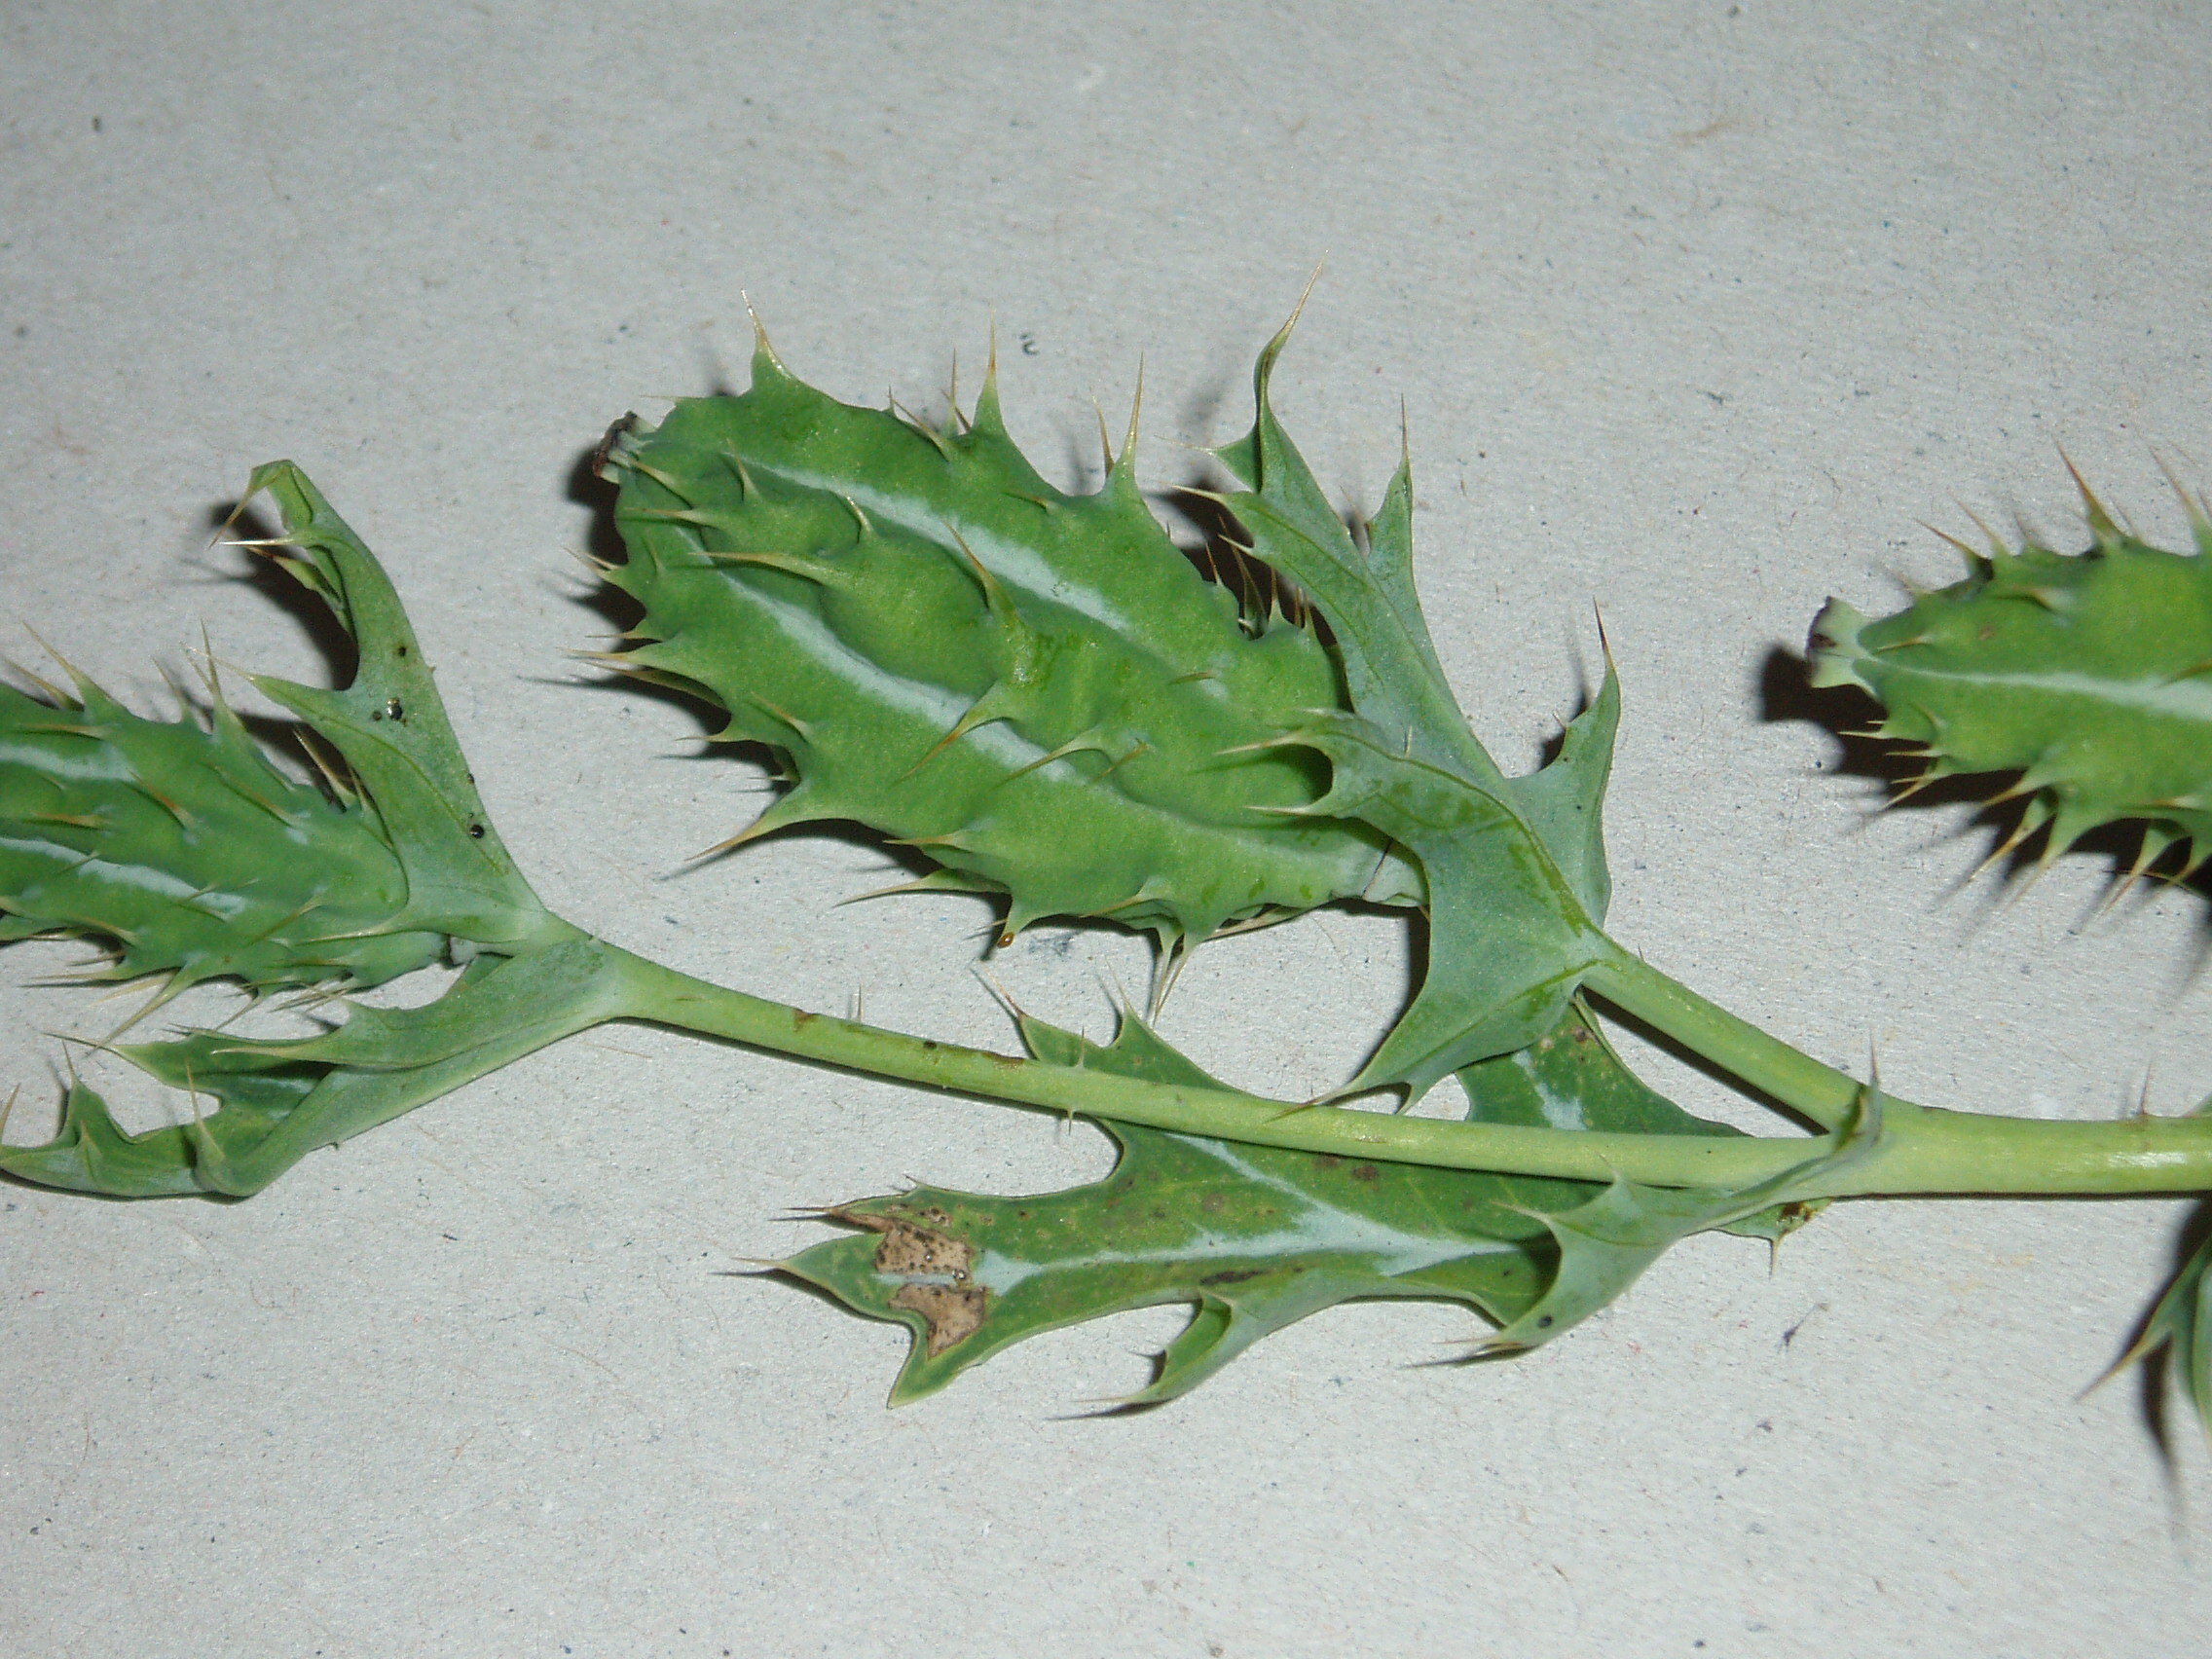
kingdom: Plantae
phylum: Tracheophyta
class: Magnoliopsida
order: Ranunculales
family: Papaveraceae
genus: Argemone
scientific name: Argemone ochroleuca
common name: White-flower mexican-poppy
